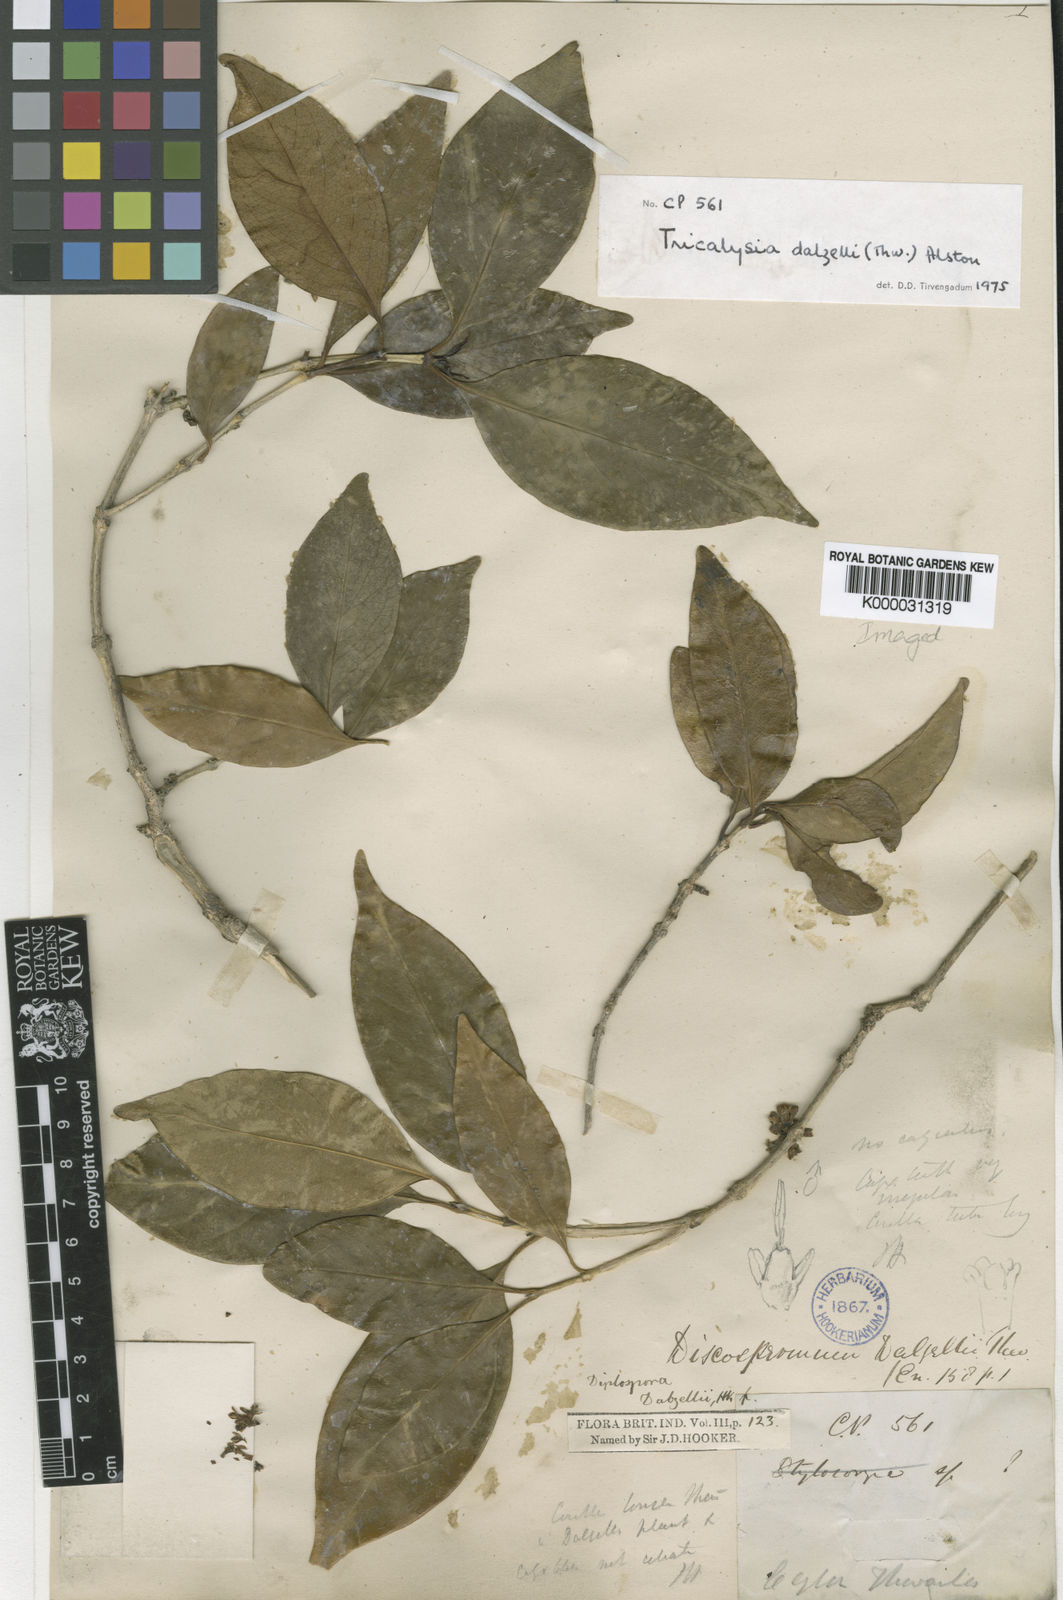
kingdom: Plantae
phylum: Tracheophyta
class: Magnoliopsida
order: Gentianales
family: Rubiaceae
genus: Discospermum
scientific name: Discospermum sphaerocarpum
